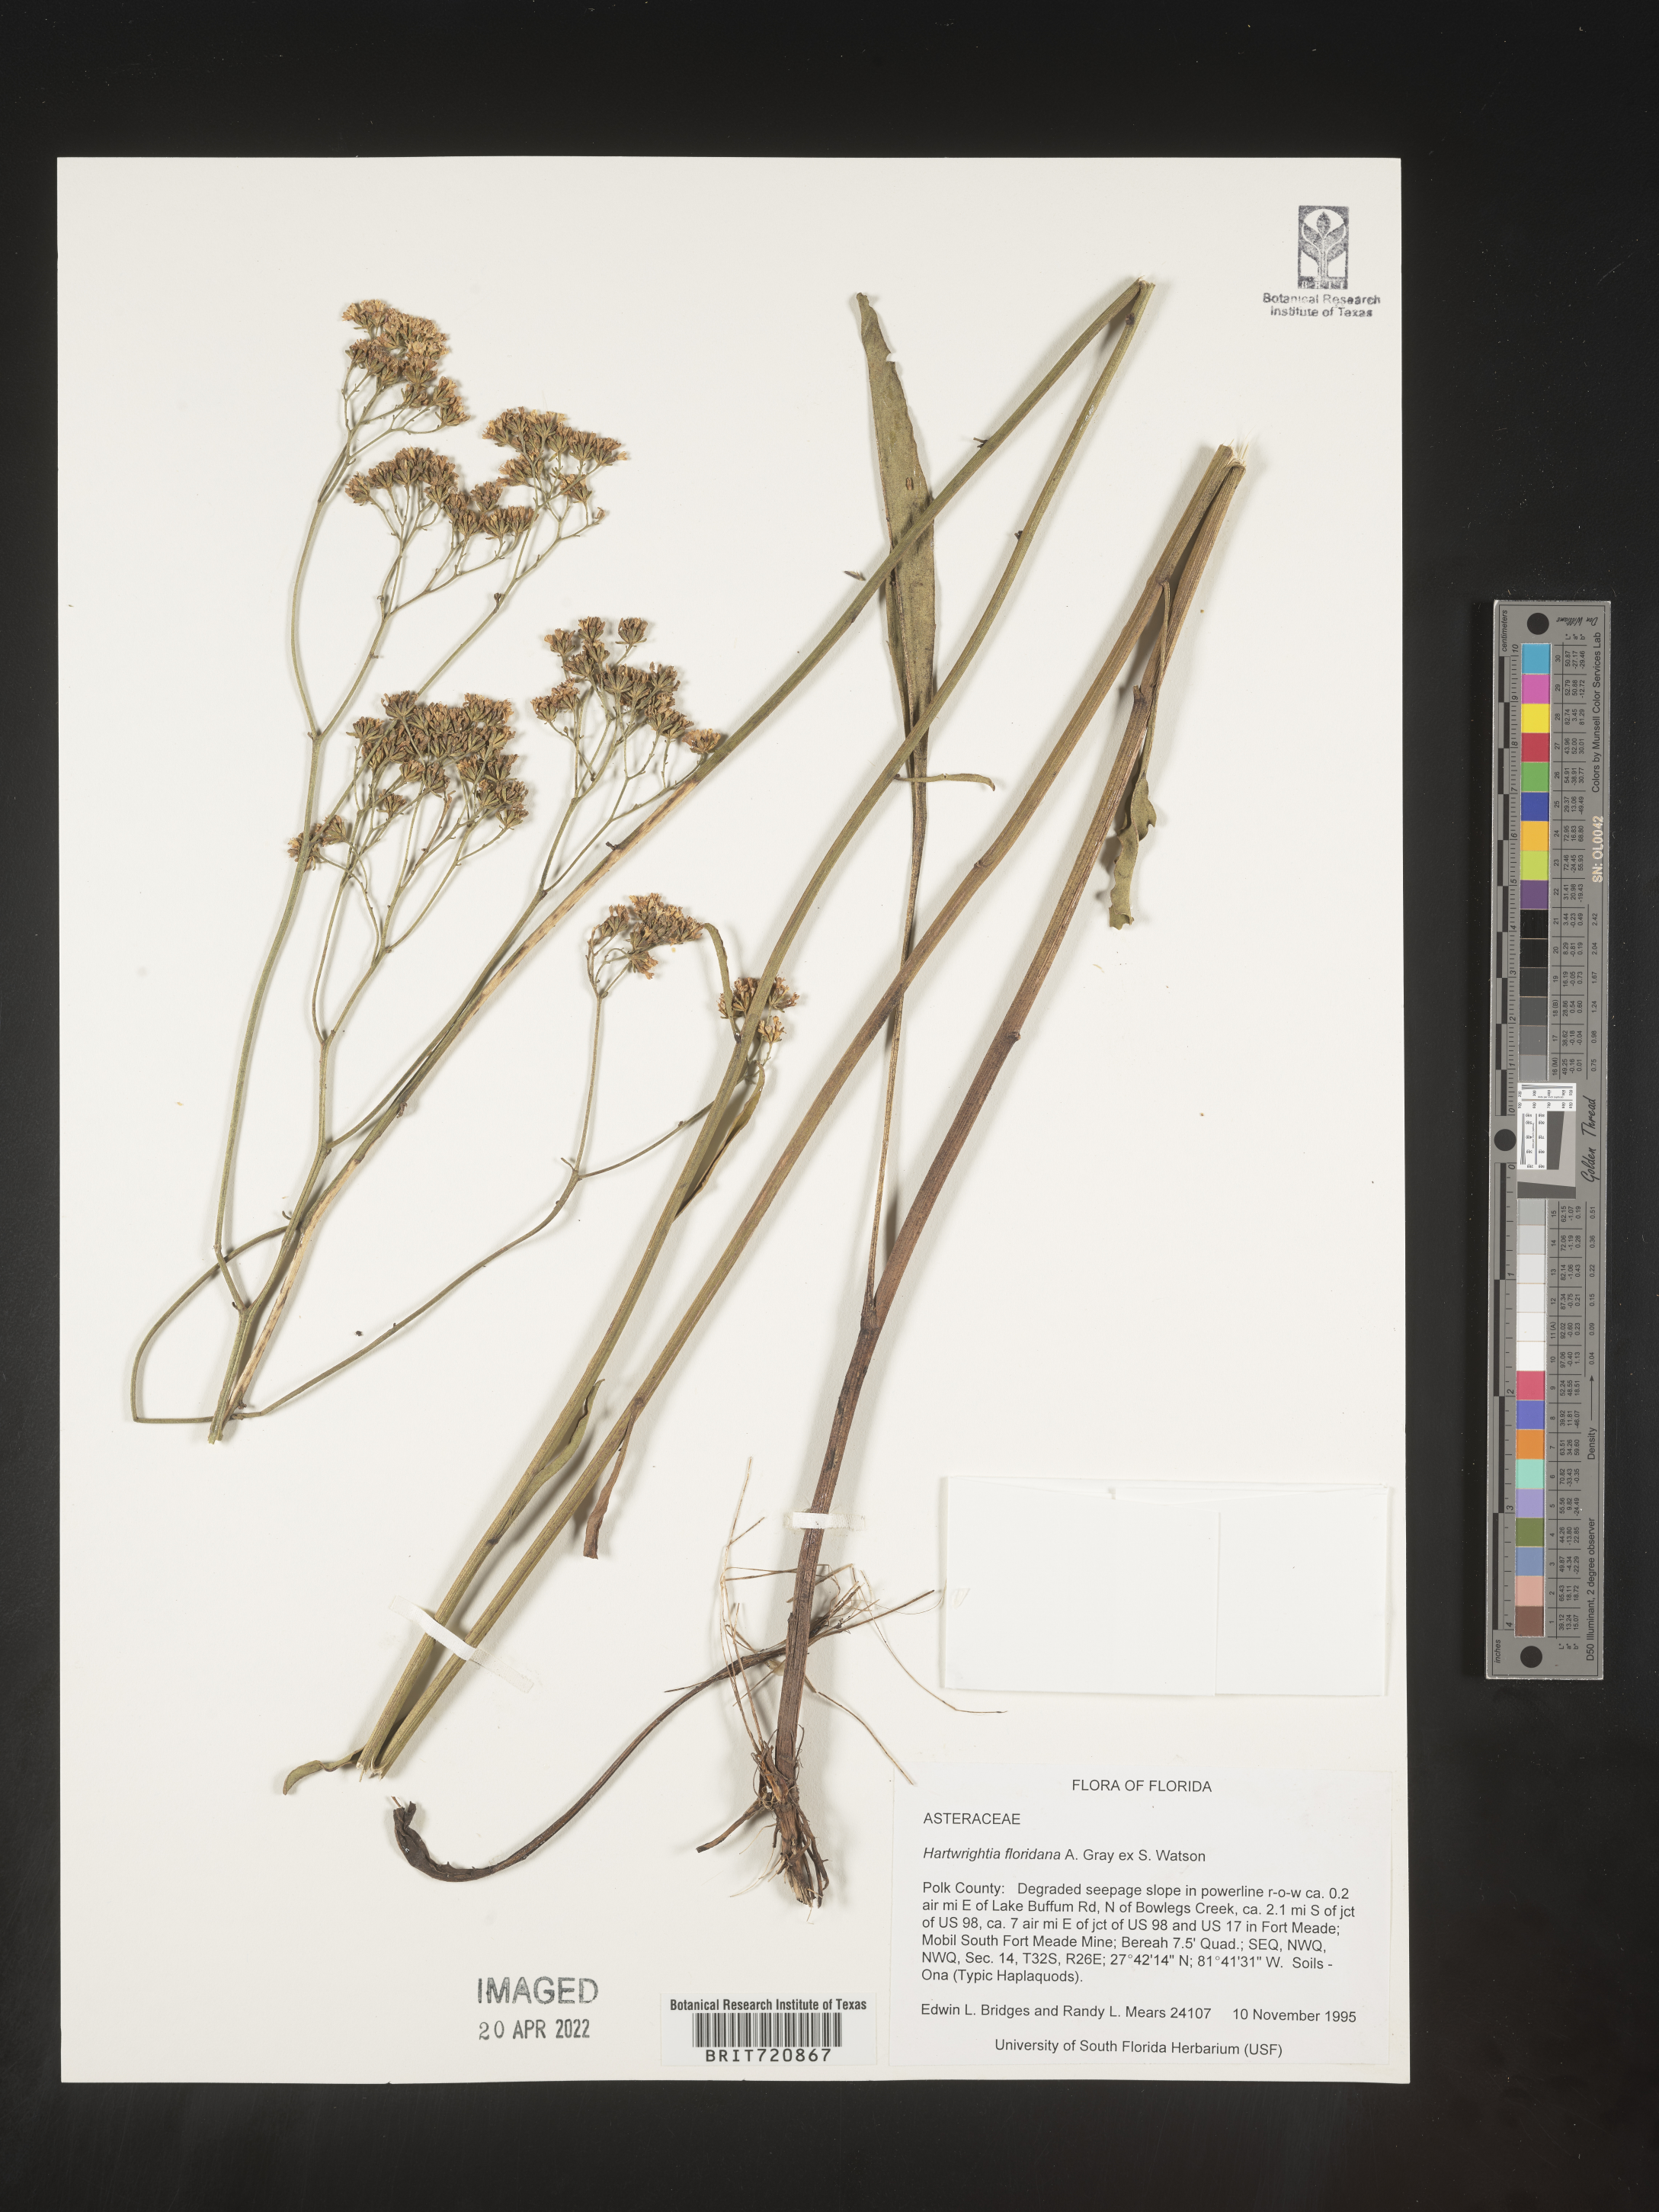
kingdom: Plantae
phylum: Tracheophyta
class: Magnoliopsida
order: Asterales
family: Asteraceae
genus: Hartwrightia
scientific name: Hartwrightia
